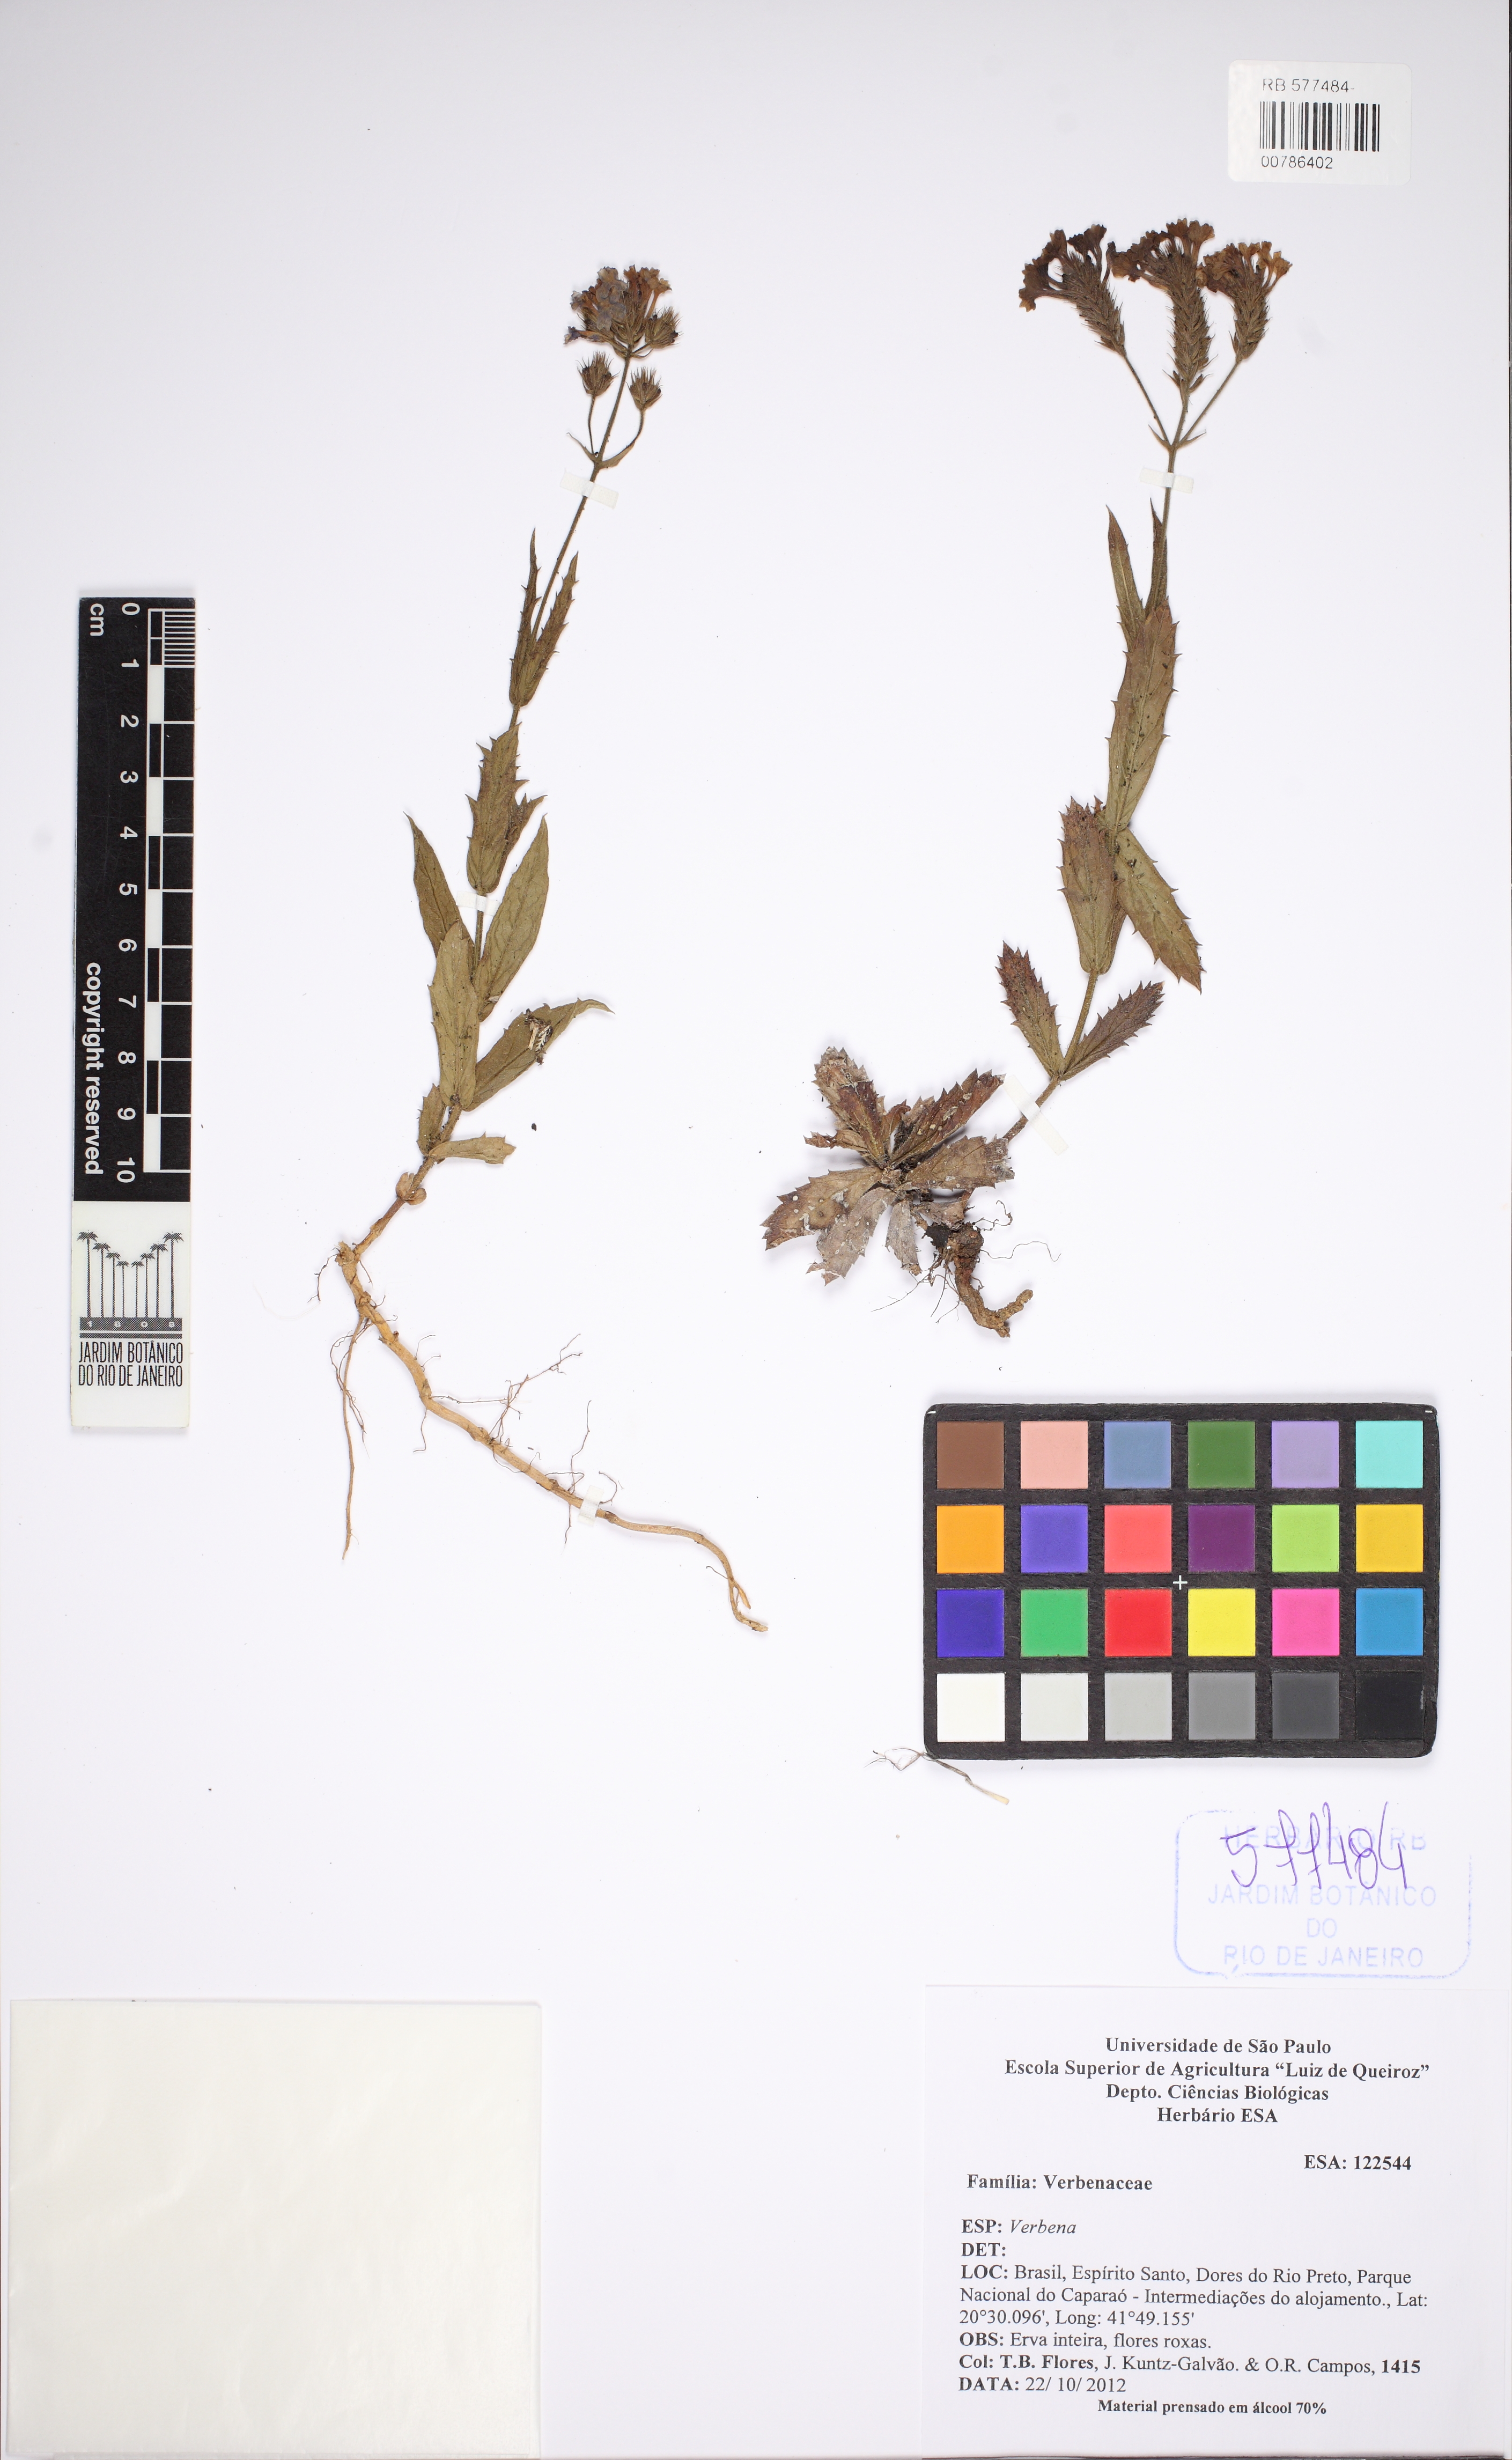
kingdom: Plantae
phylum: Tracheophyta
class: Magnoliopsida
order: Lamiales
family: Verbenaceae
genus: Verbena
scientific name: Verbena
